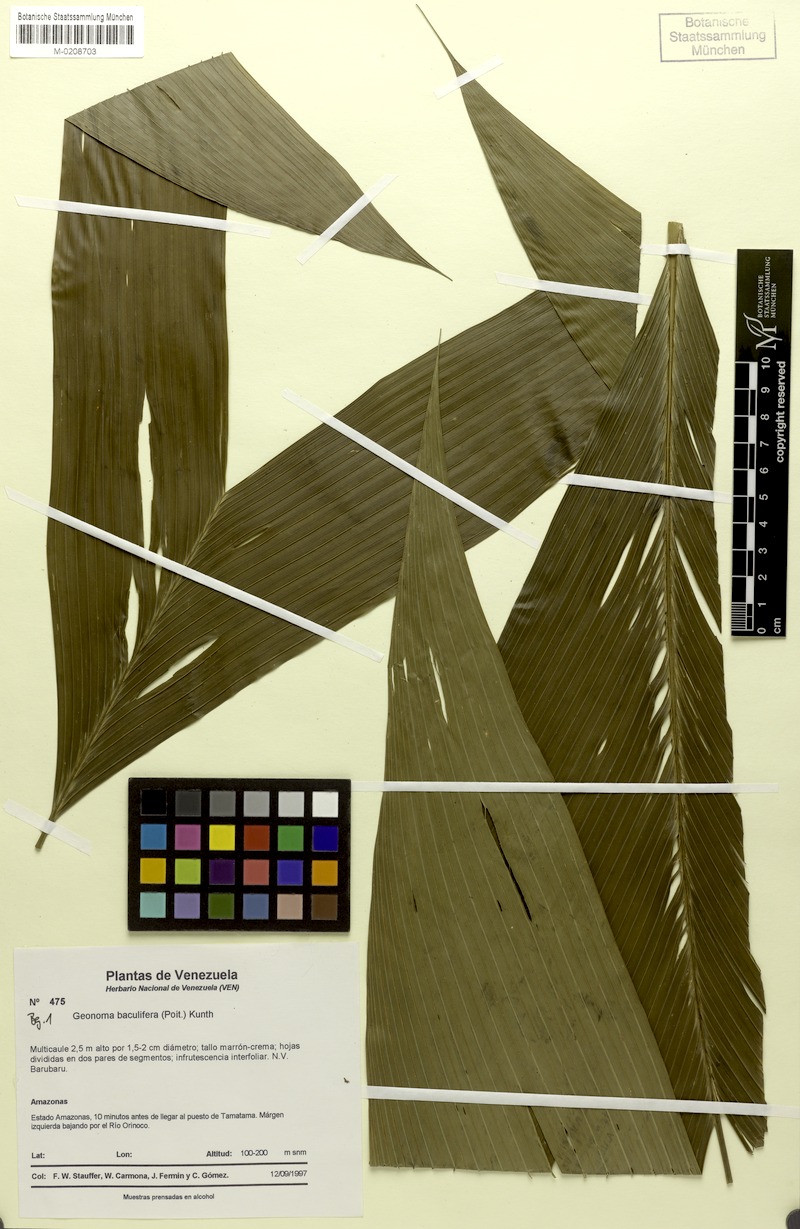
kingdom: Plantae
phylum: Tracheophyta
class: Liliopsida
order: Arecales
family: Arecaceae
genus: Geonoma
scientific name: Geonoma baculifera
